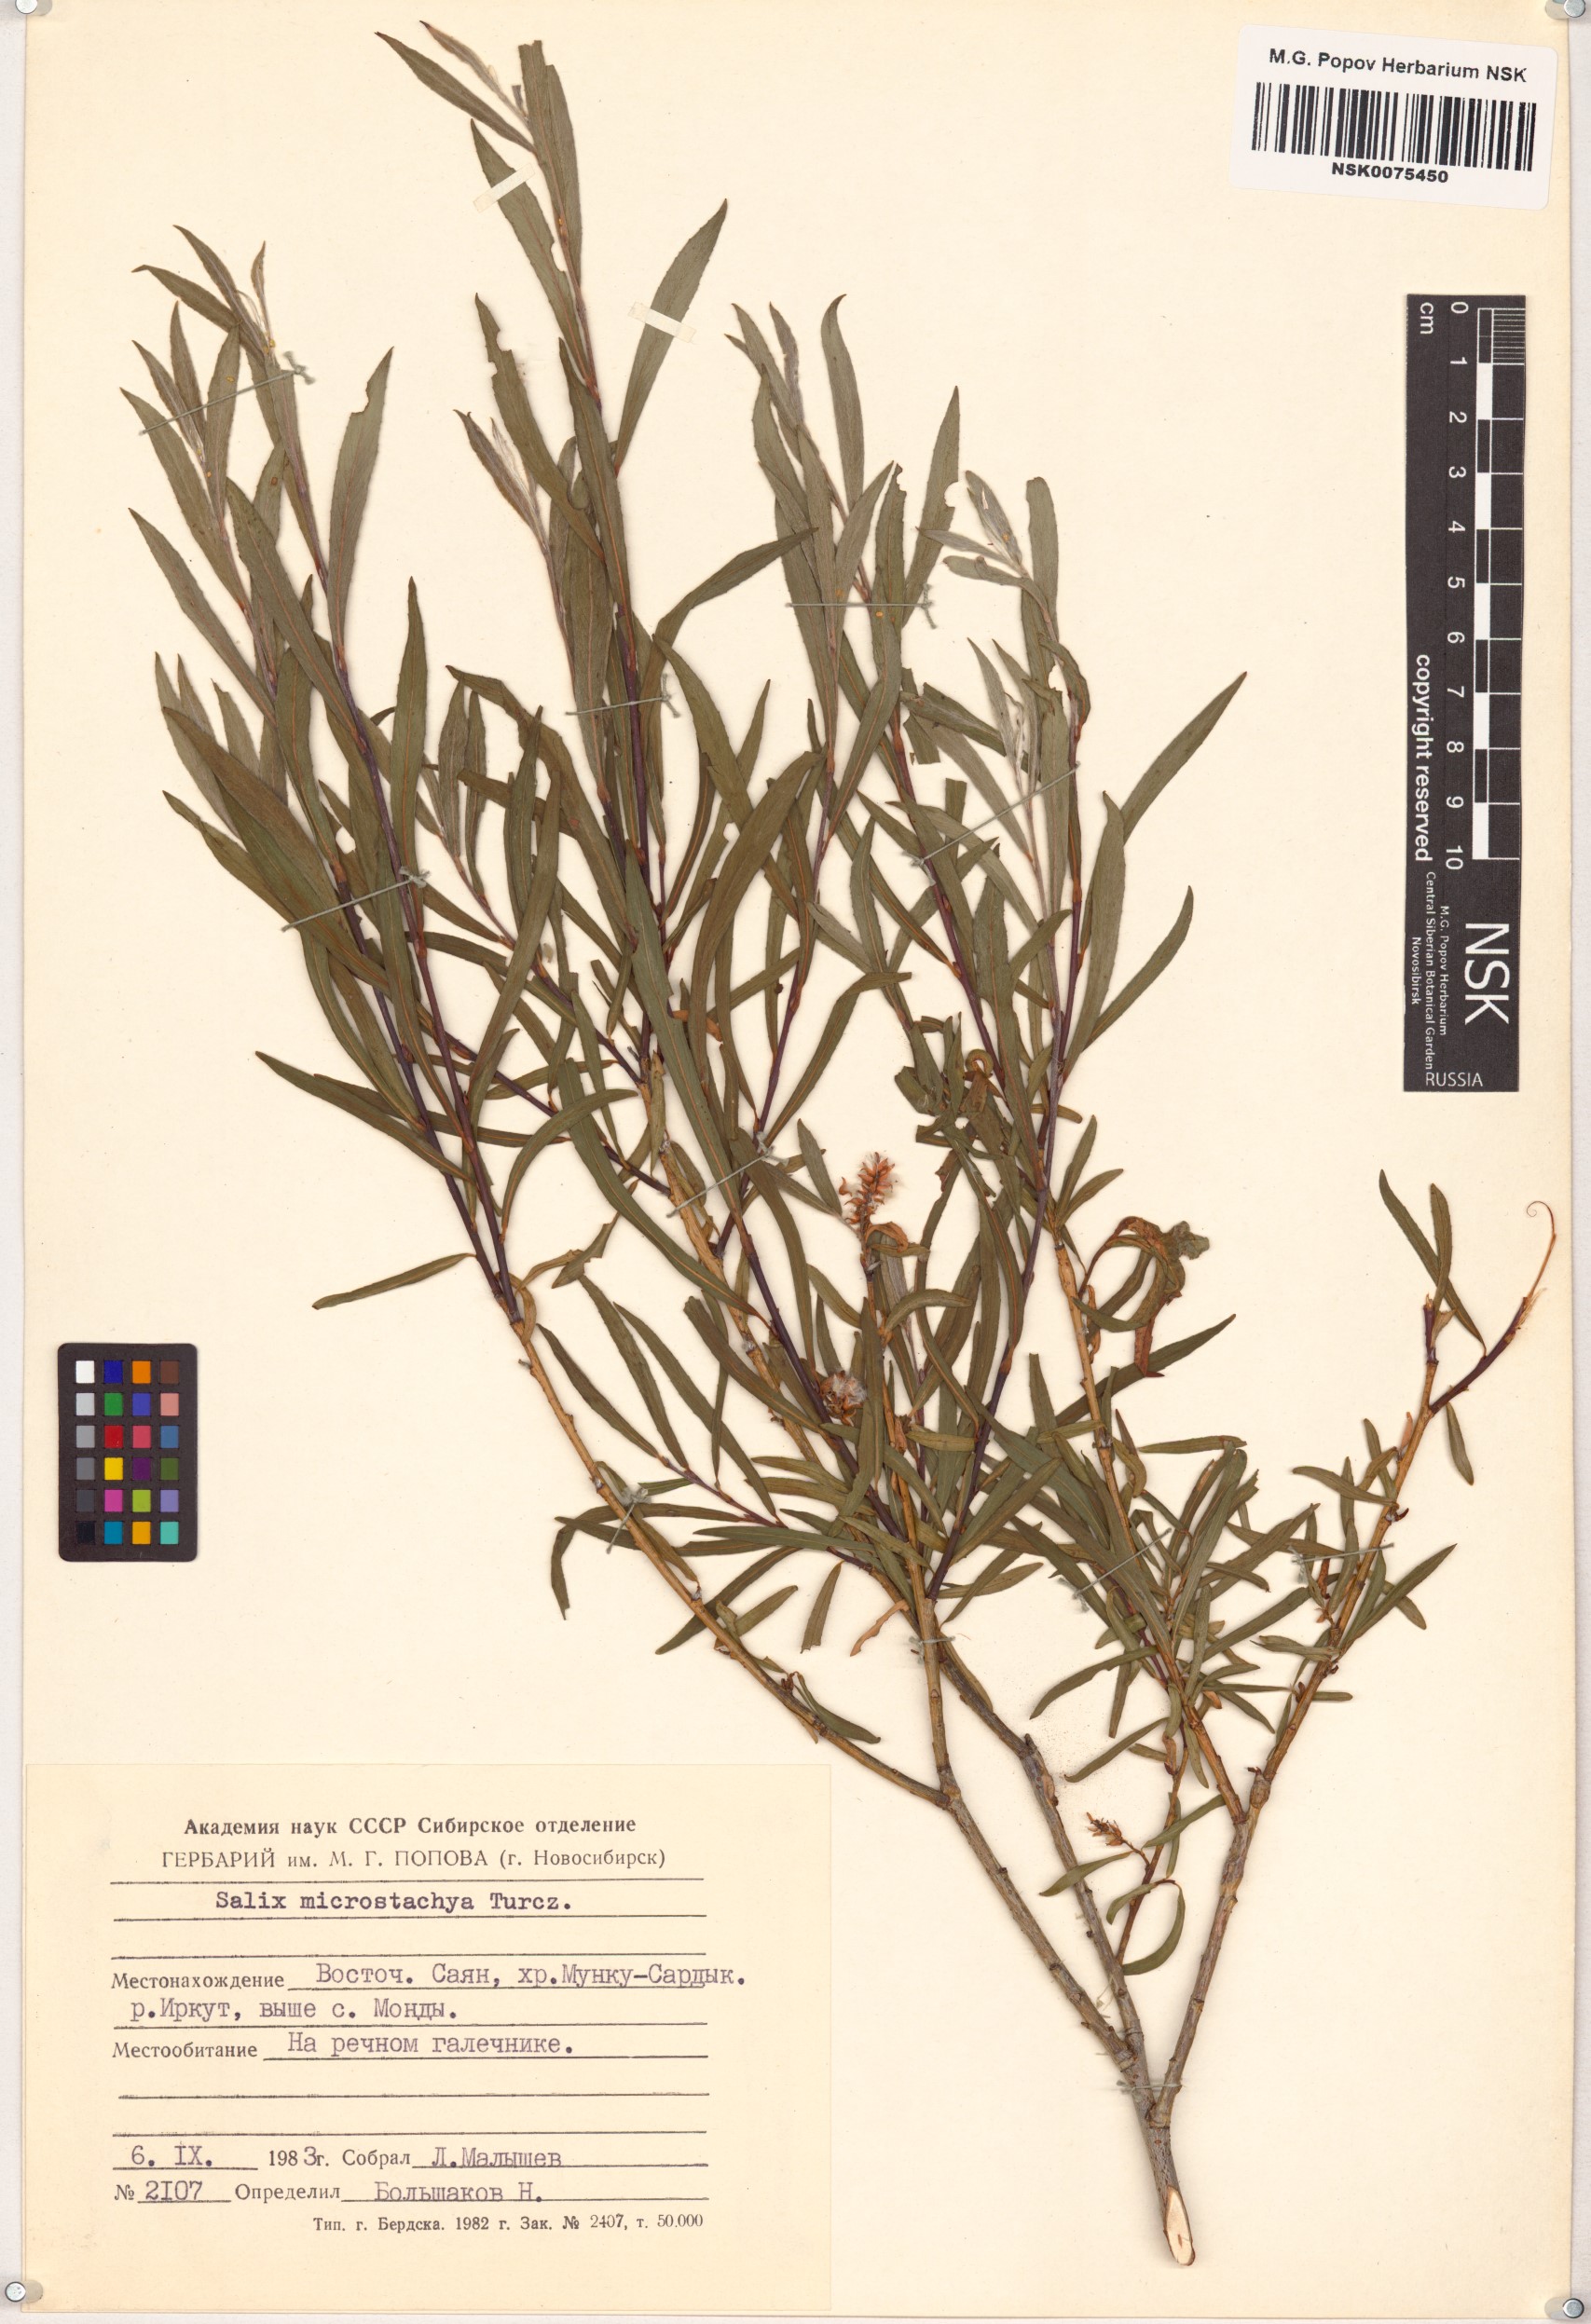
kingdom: Plantae
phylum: Tracheophyta
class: Magnoliopsida
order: Malpighiales
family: Salicaceae
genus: Salix
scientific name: Salix microstachya
